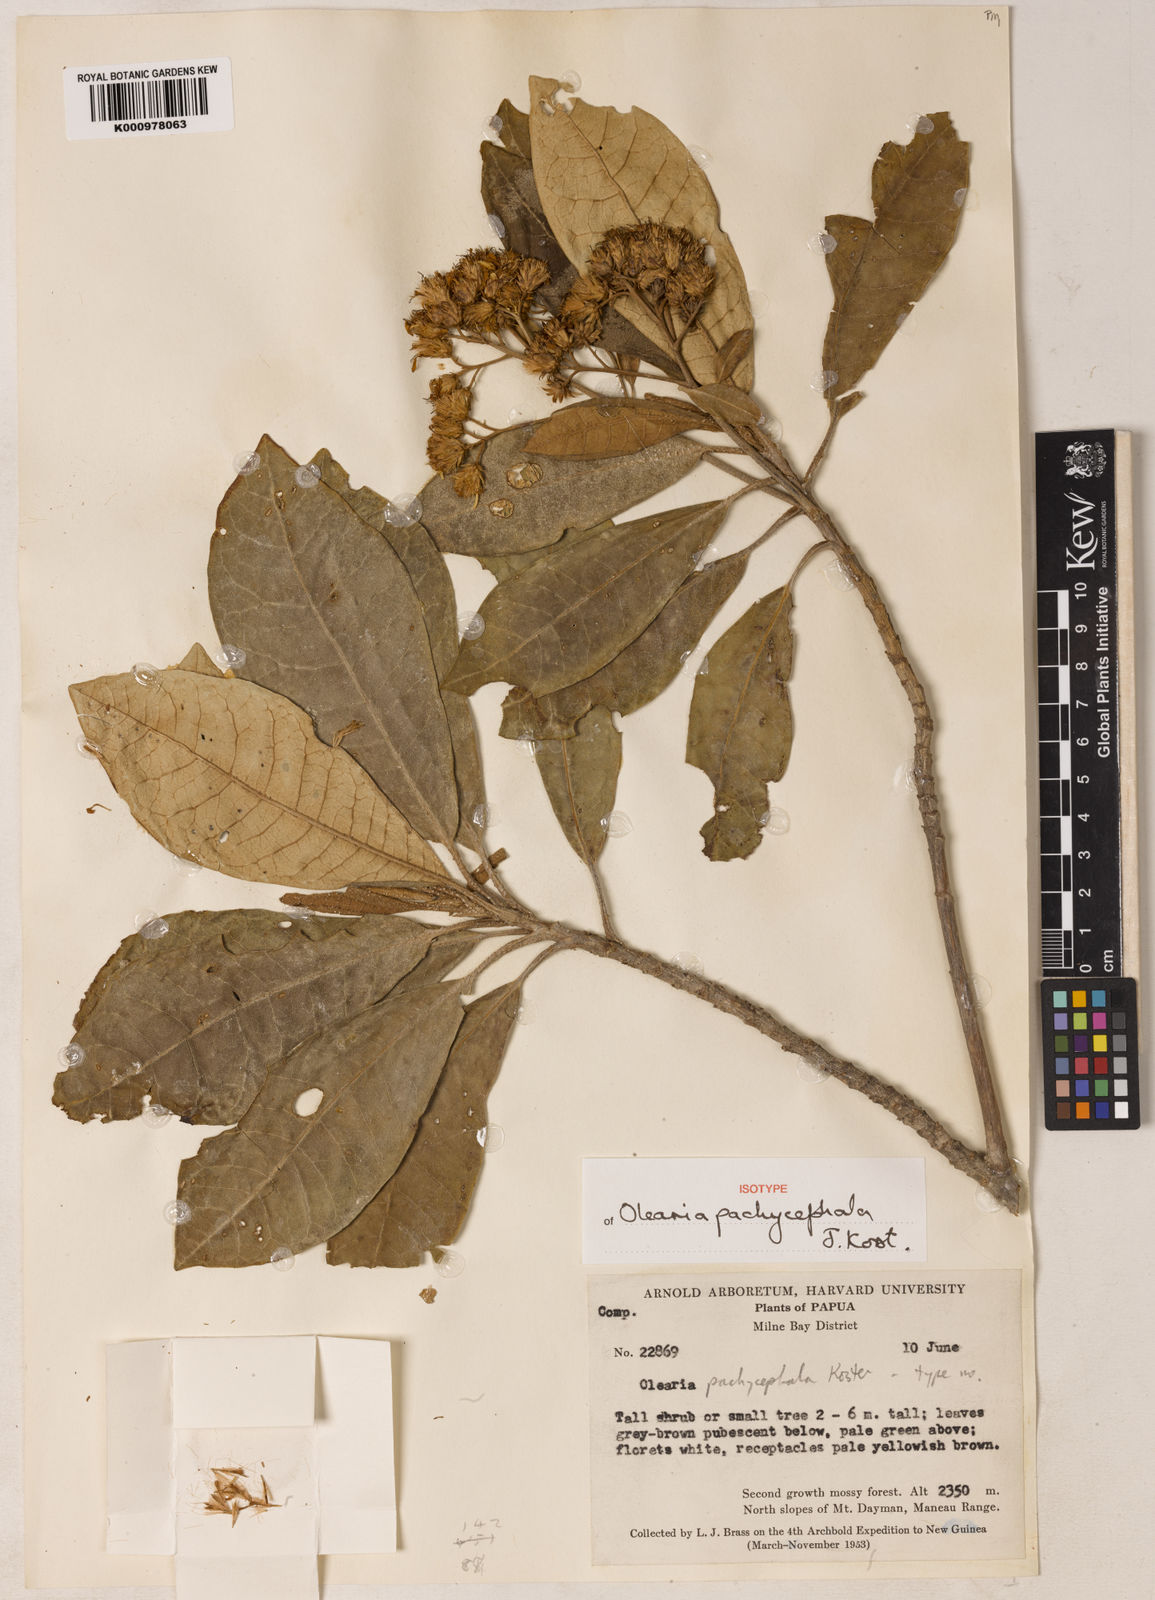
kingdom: Plantae
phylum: Tracheophyta
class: Magnoliopsida
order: Asterales
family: Asteraceae
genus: Olearia
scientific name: Olearia pachycephala
